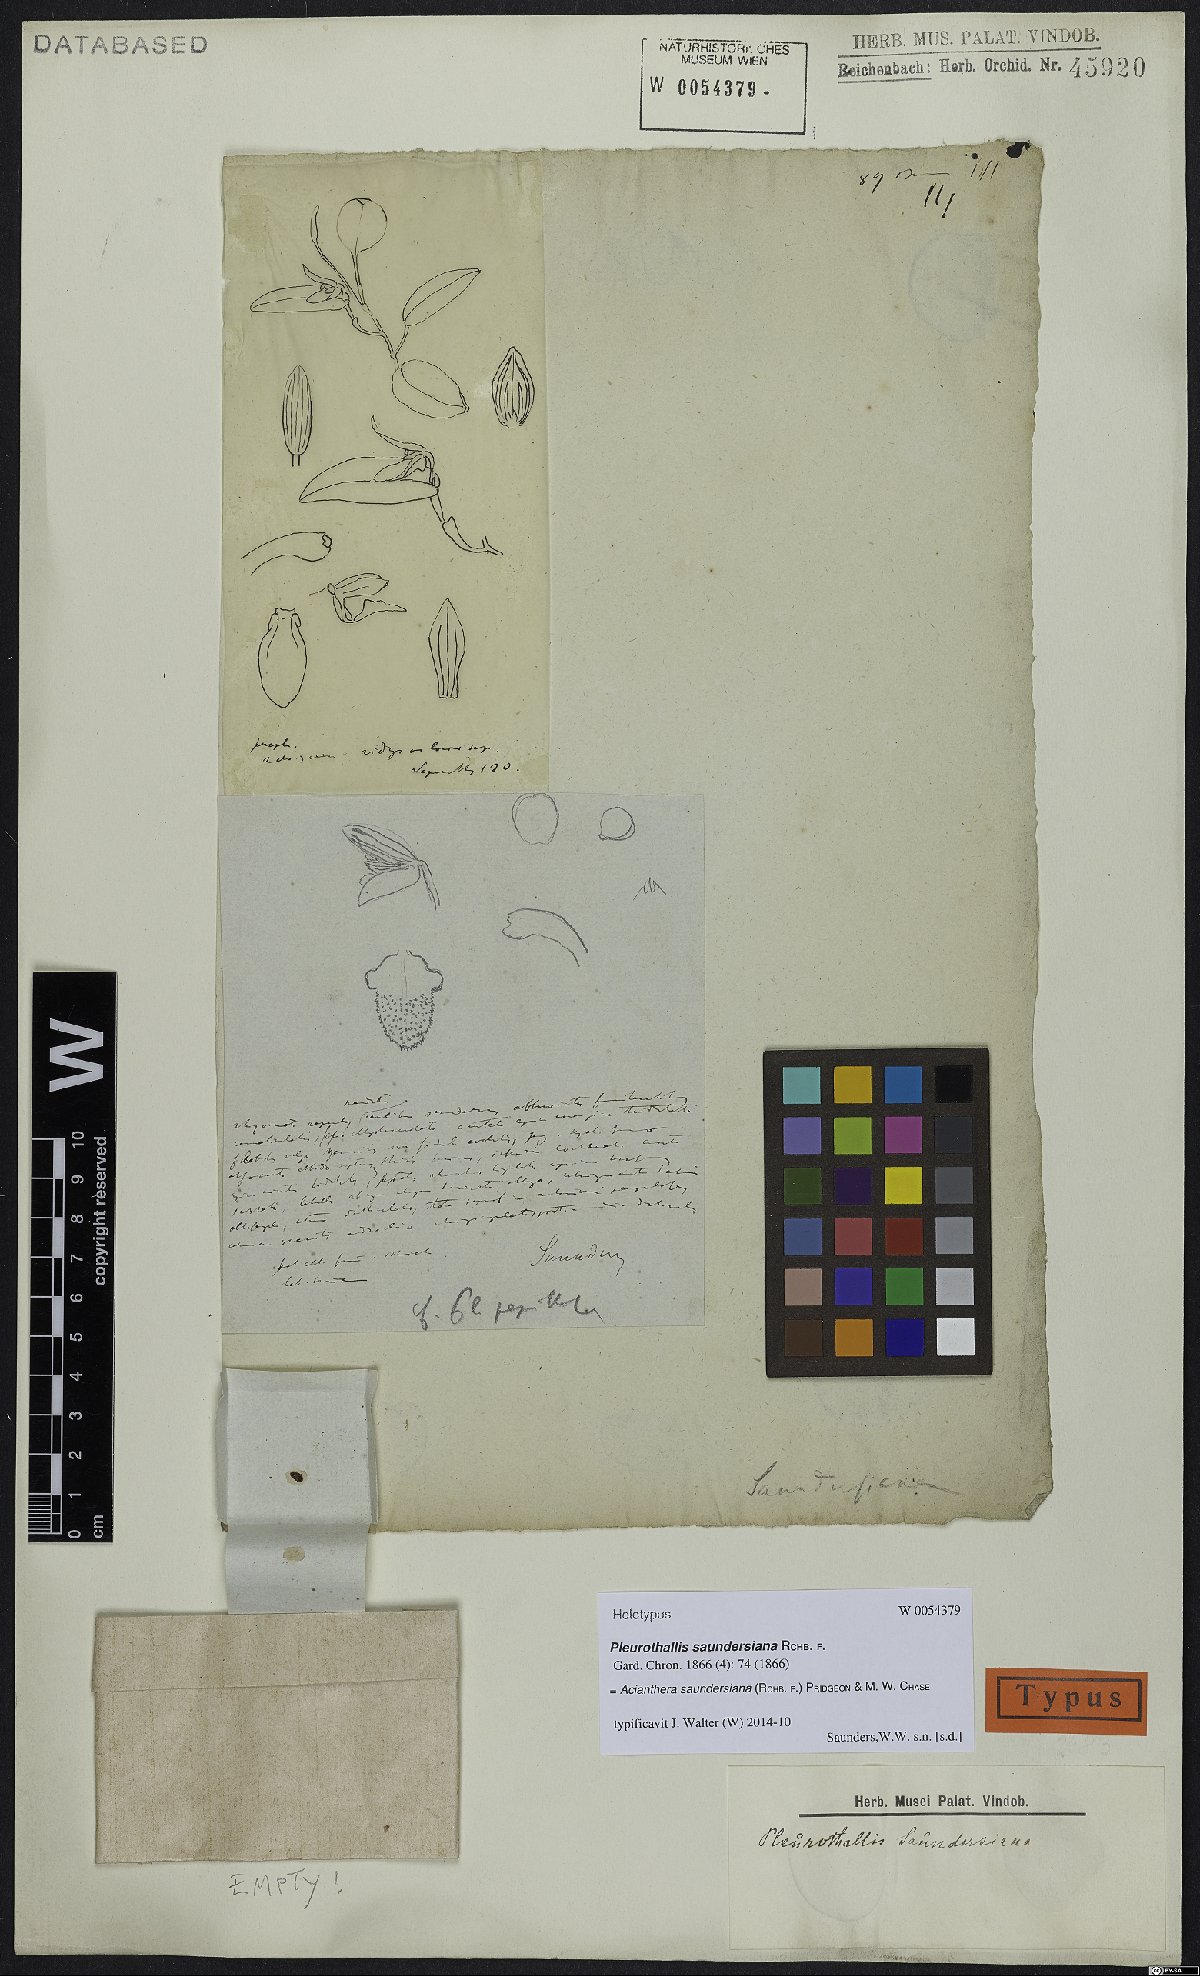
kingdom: Plantae
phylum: Tracheophyta
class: Liliopsida
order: Asparagales
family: Orchidaceae
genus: Acianthera
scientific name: Acianthera saundersiana
